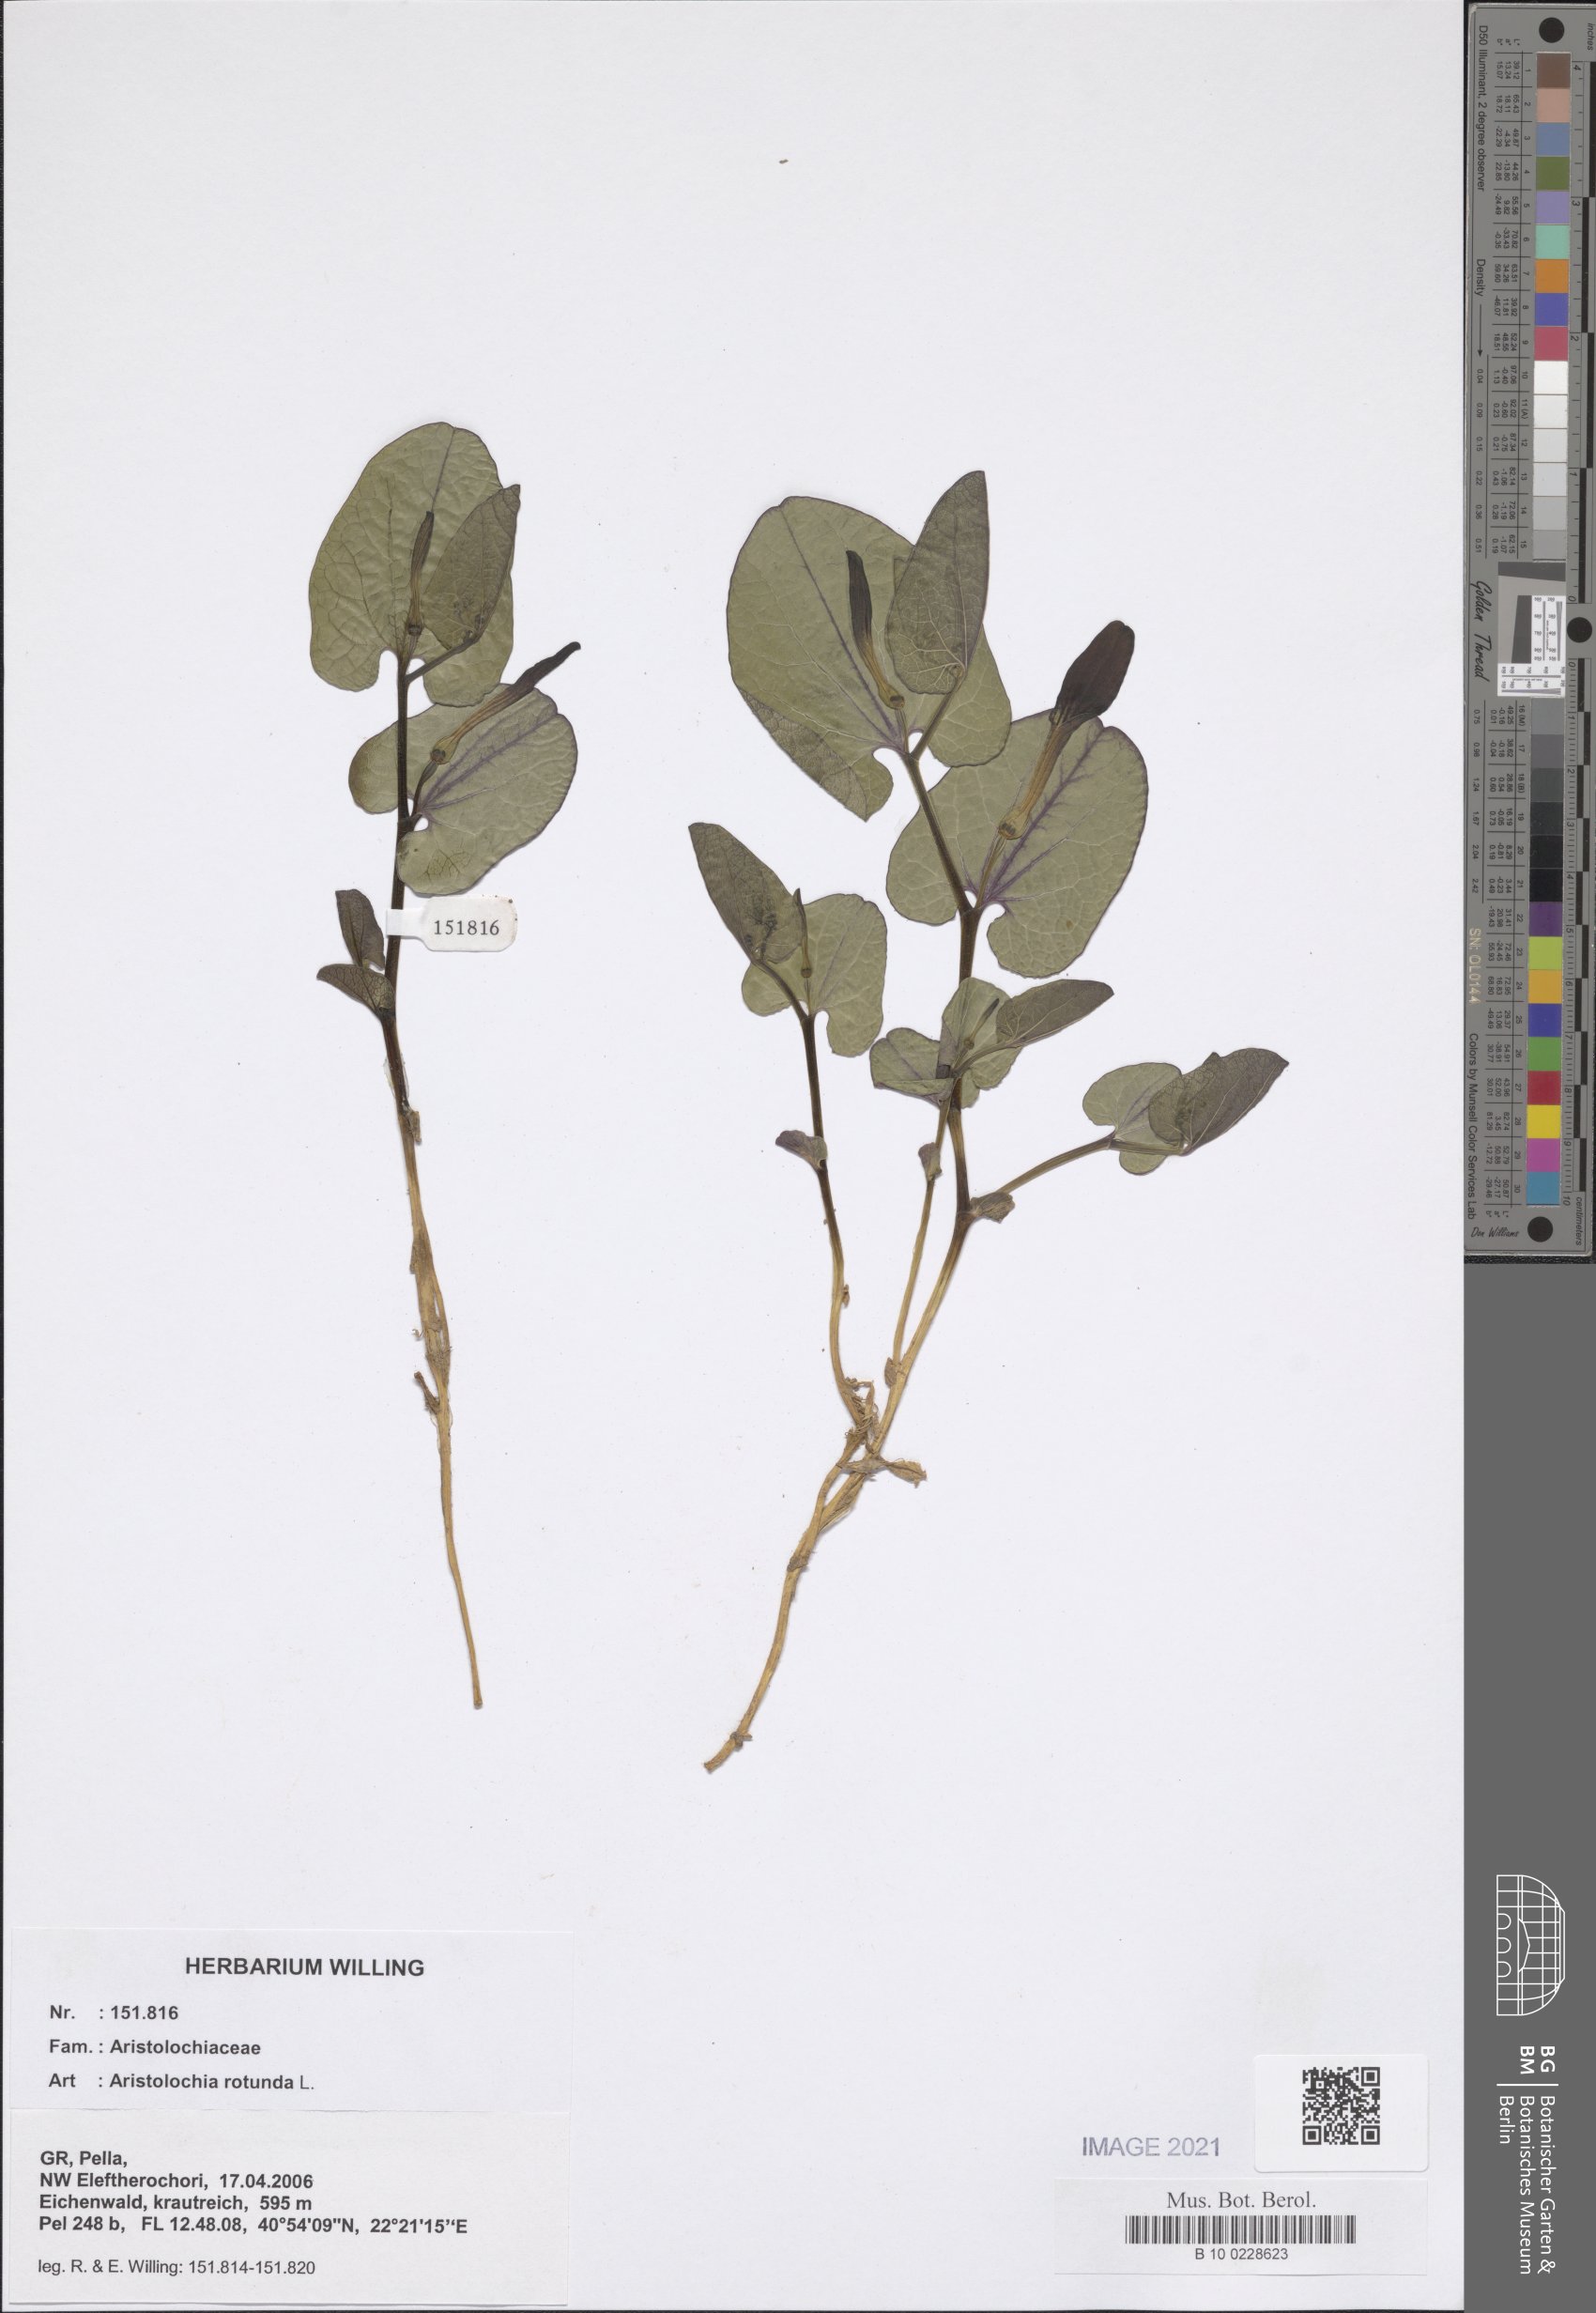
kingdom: Plantae
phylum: Tracheophyta
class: Magnoliopsida
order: Piperales
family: Aristolochiaceae
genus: Aristolochia
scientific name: Aristolochia rotunda
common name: Smearwort
